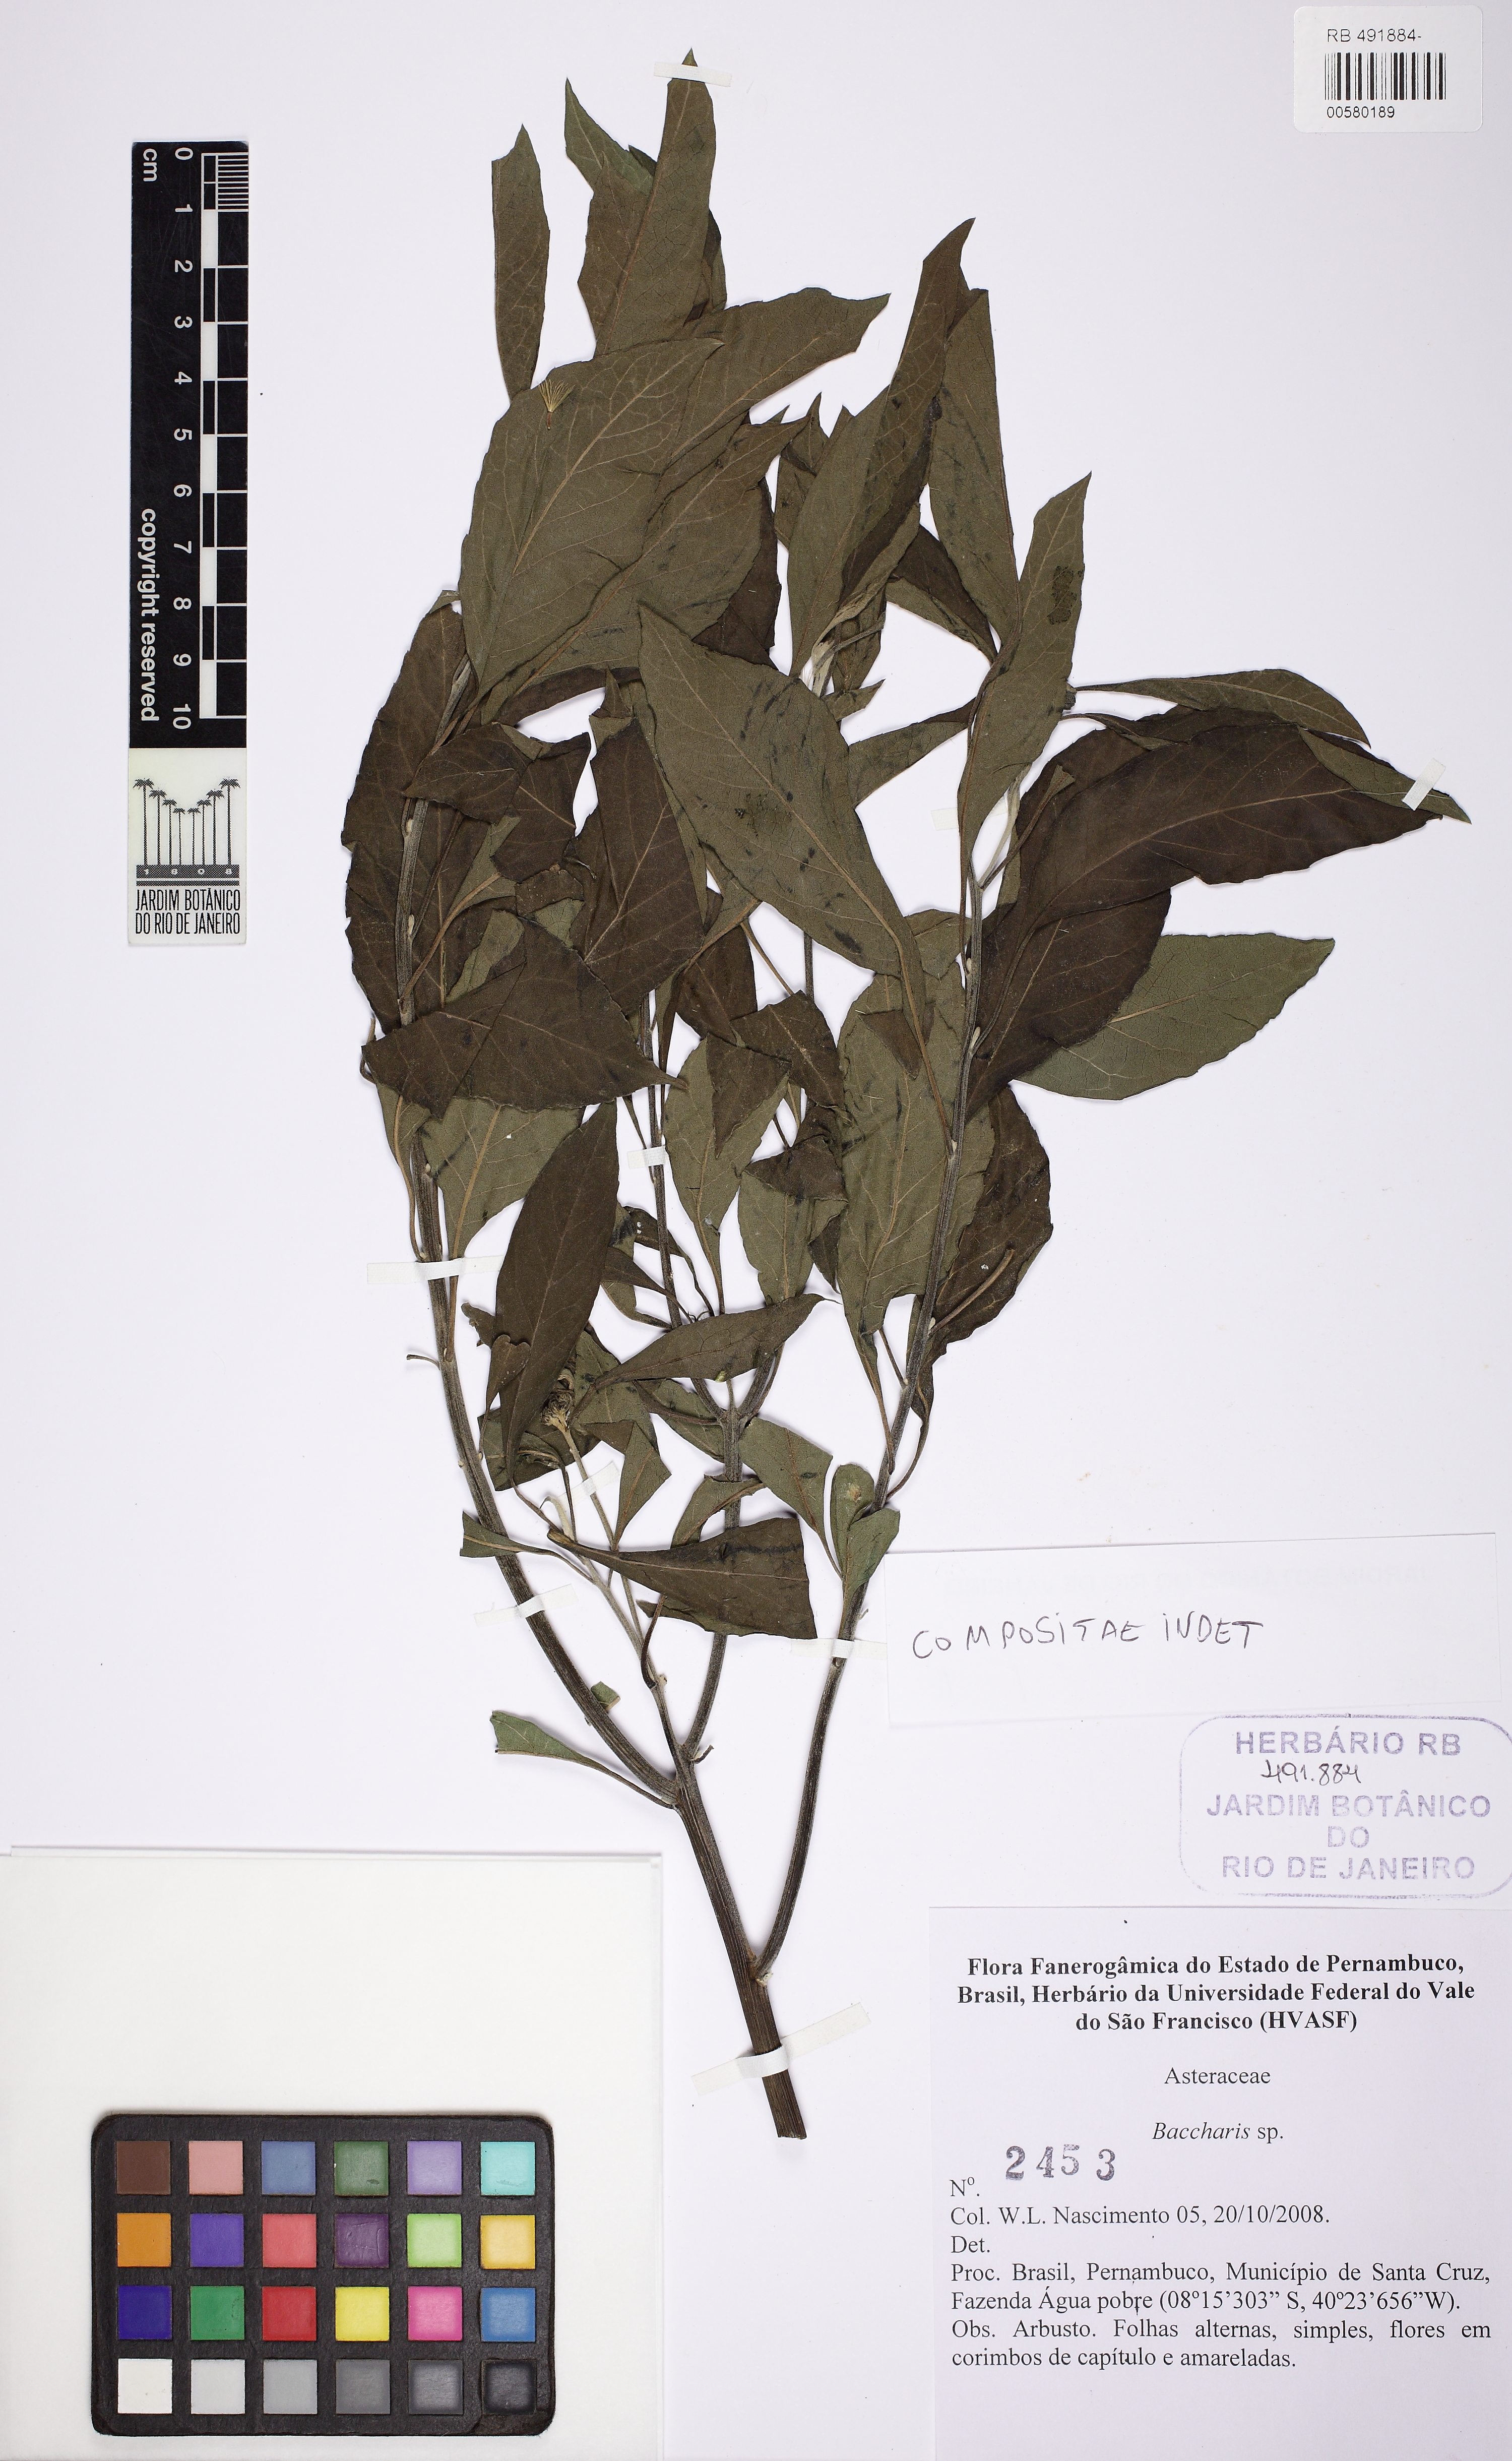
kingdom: Plantae
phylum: Tracheophyta
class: Magnoliopsida
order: Asterales
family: Asteraceae
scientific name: Asteraceae
